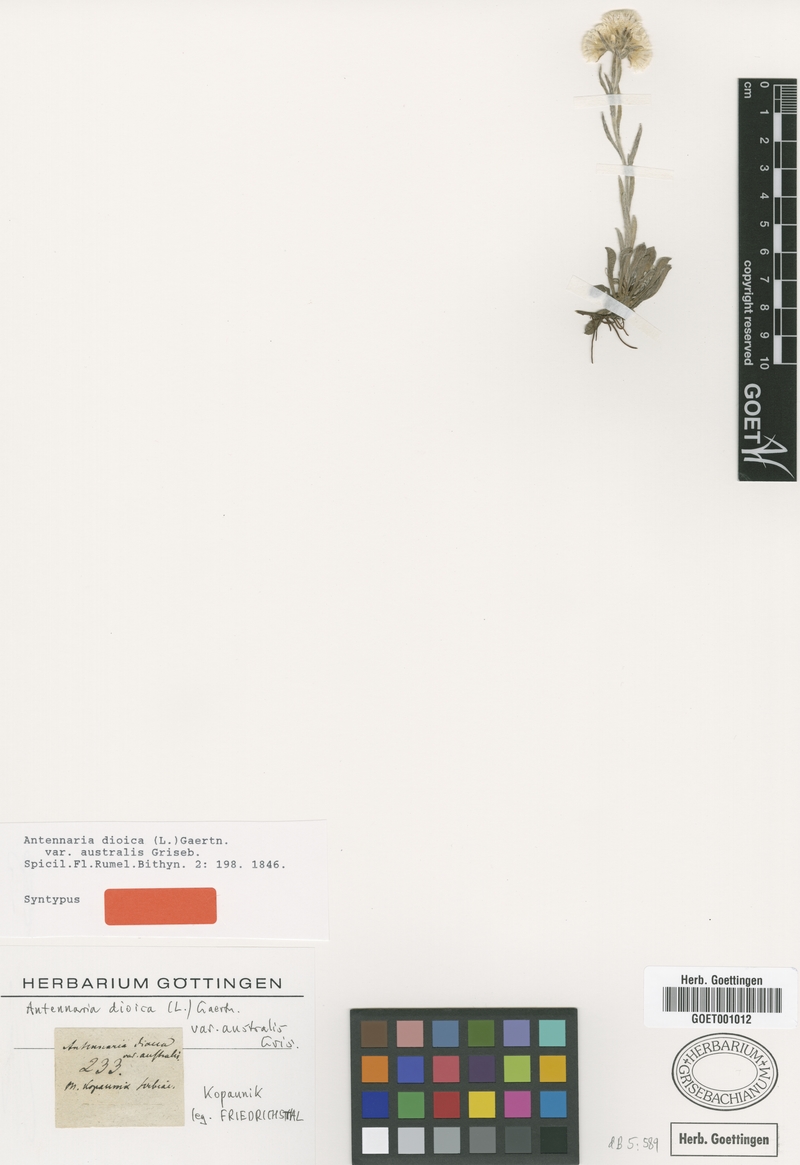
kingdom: Plantae
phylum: Tracheophyta
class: Magnoliopsida
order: Asterales
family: Asteraceae
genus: Antennaria
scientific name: Antennaria dioica
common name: Mountain everlasting
